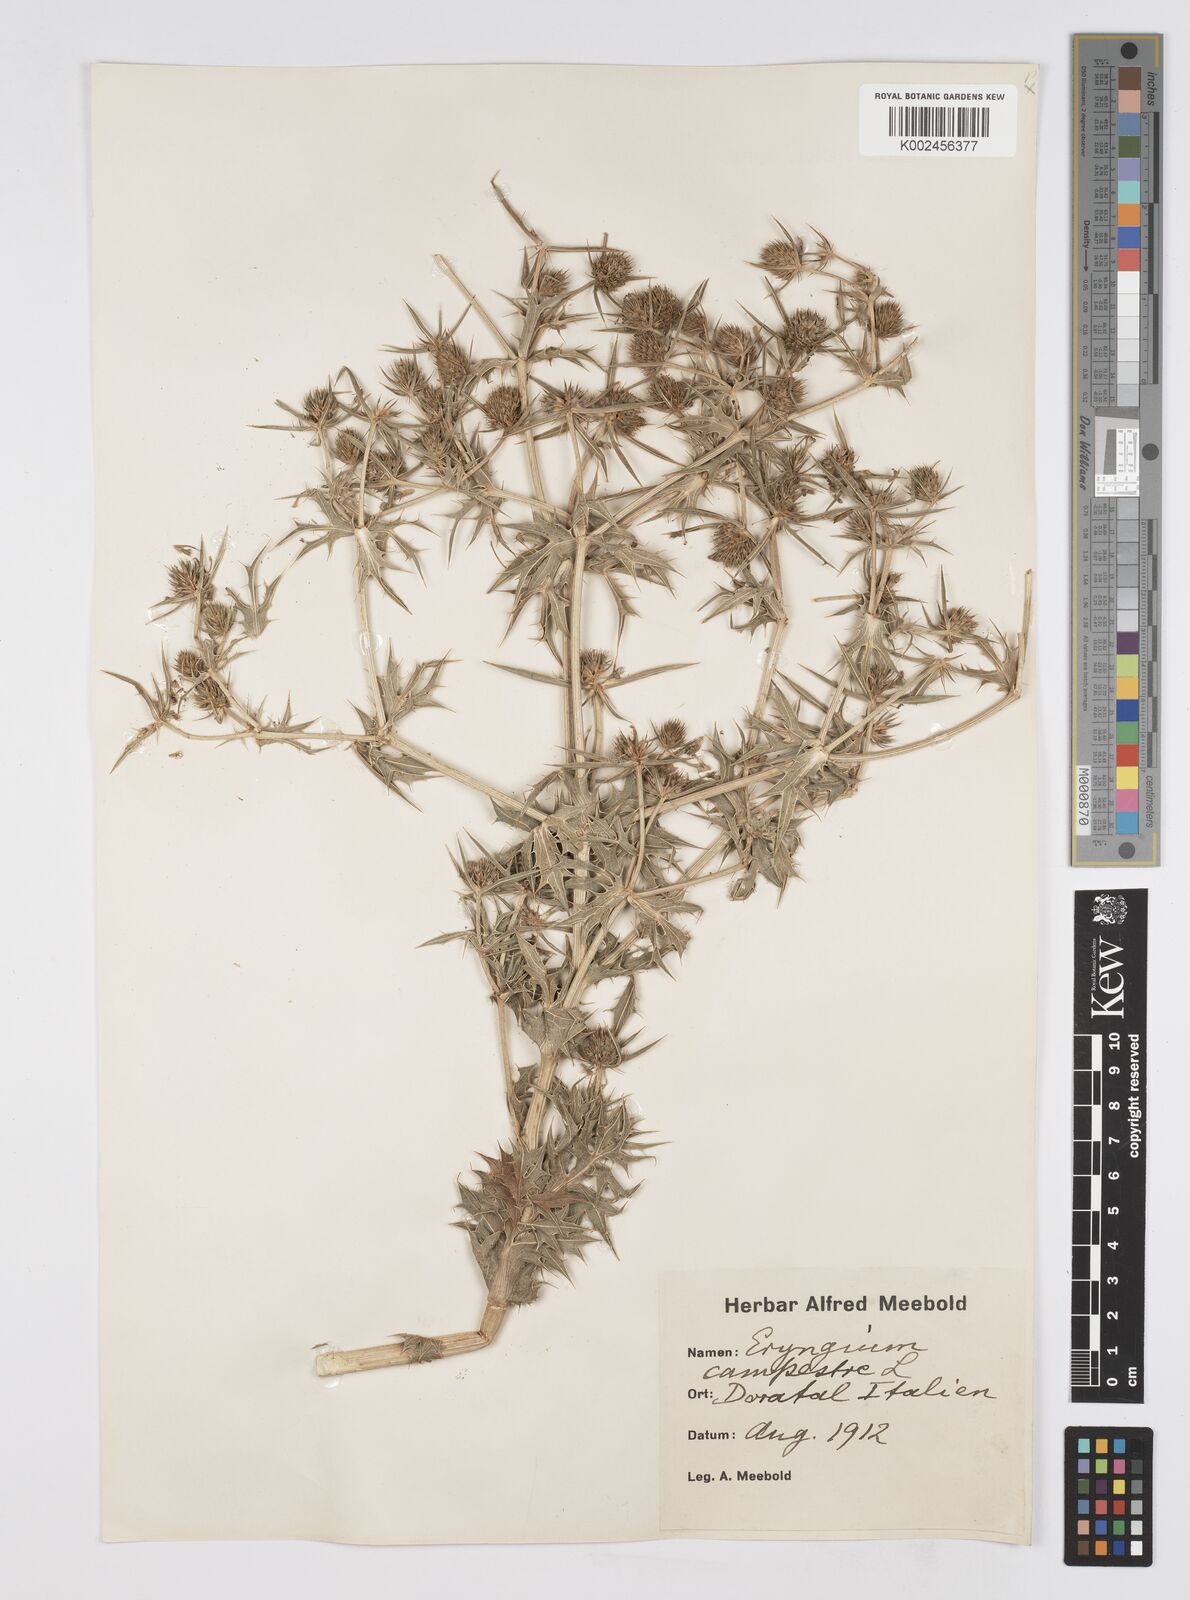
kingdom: Plantae
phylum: Tracheophyta
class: Magnoliopsida
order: Apiales
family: Apiaceae
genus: Eryngium
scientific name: Eryngium campestre
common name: Field eryngo
